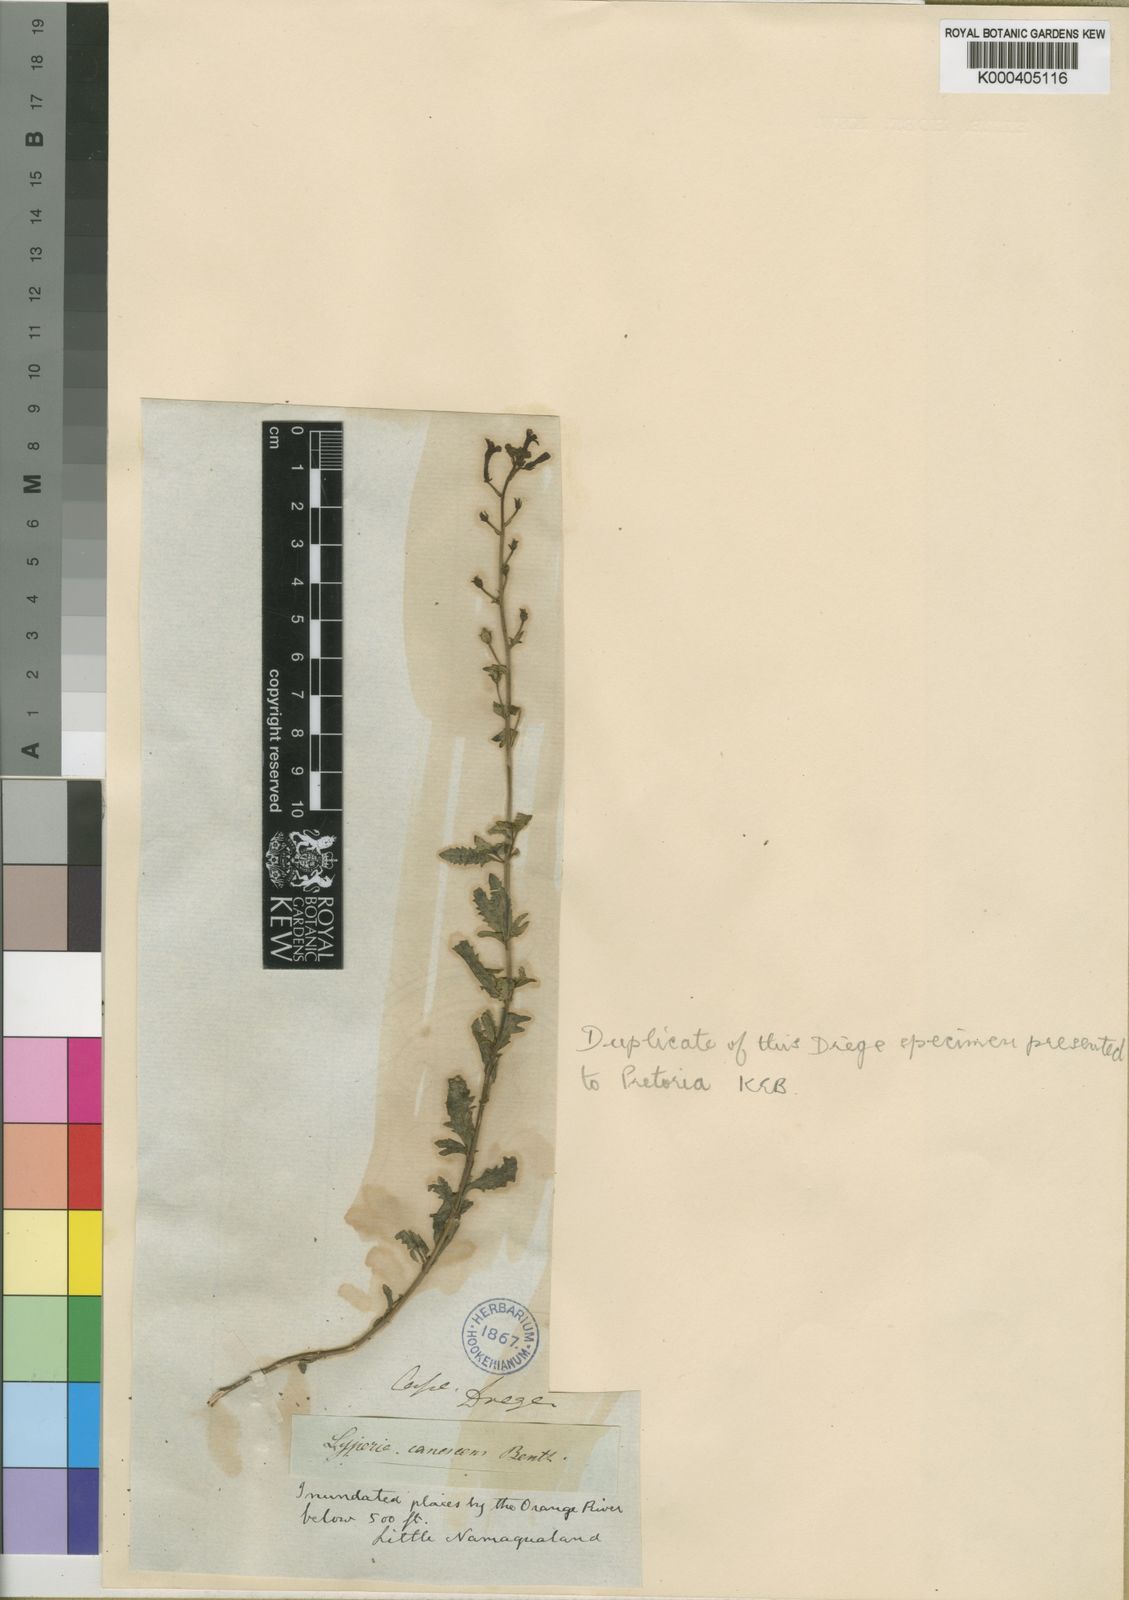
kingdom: Plantae
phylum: Tracheophyta
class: Magnoliopsida
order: Lamiales
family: Scrophulariaceae
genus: Jamesbrittenia
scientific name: Jamesbrittenia canescens
